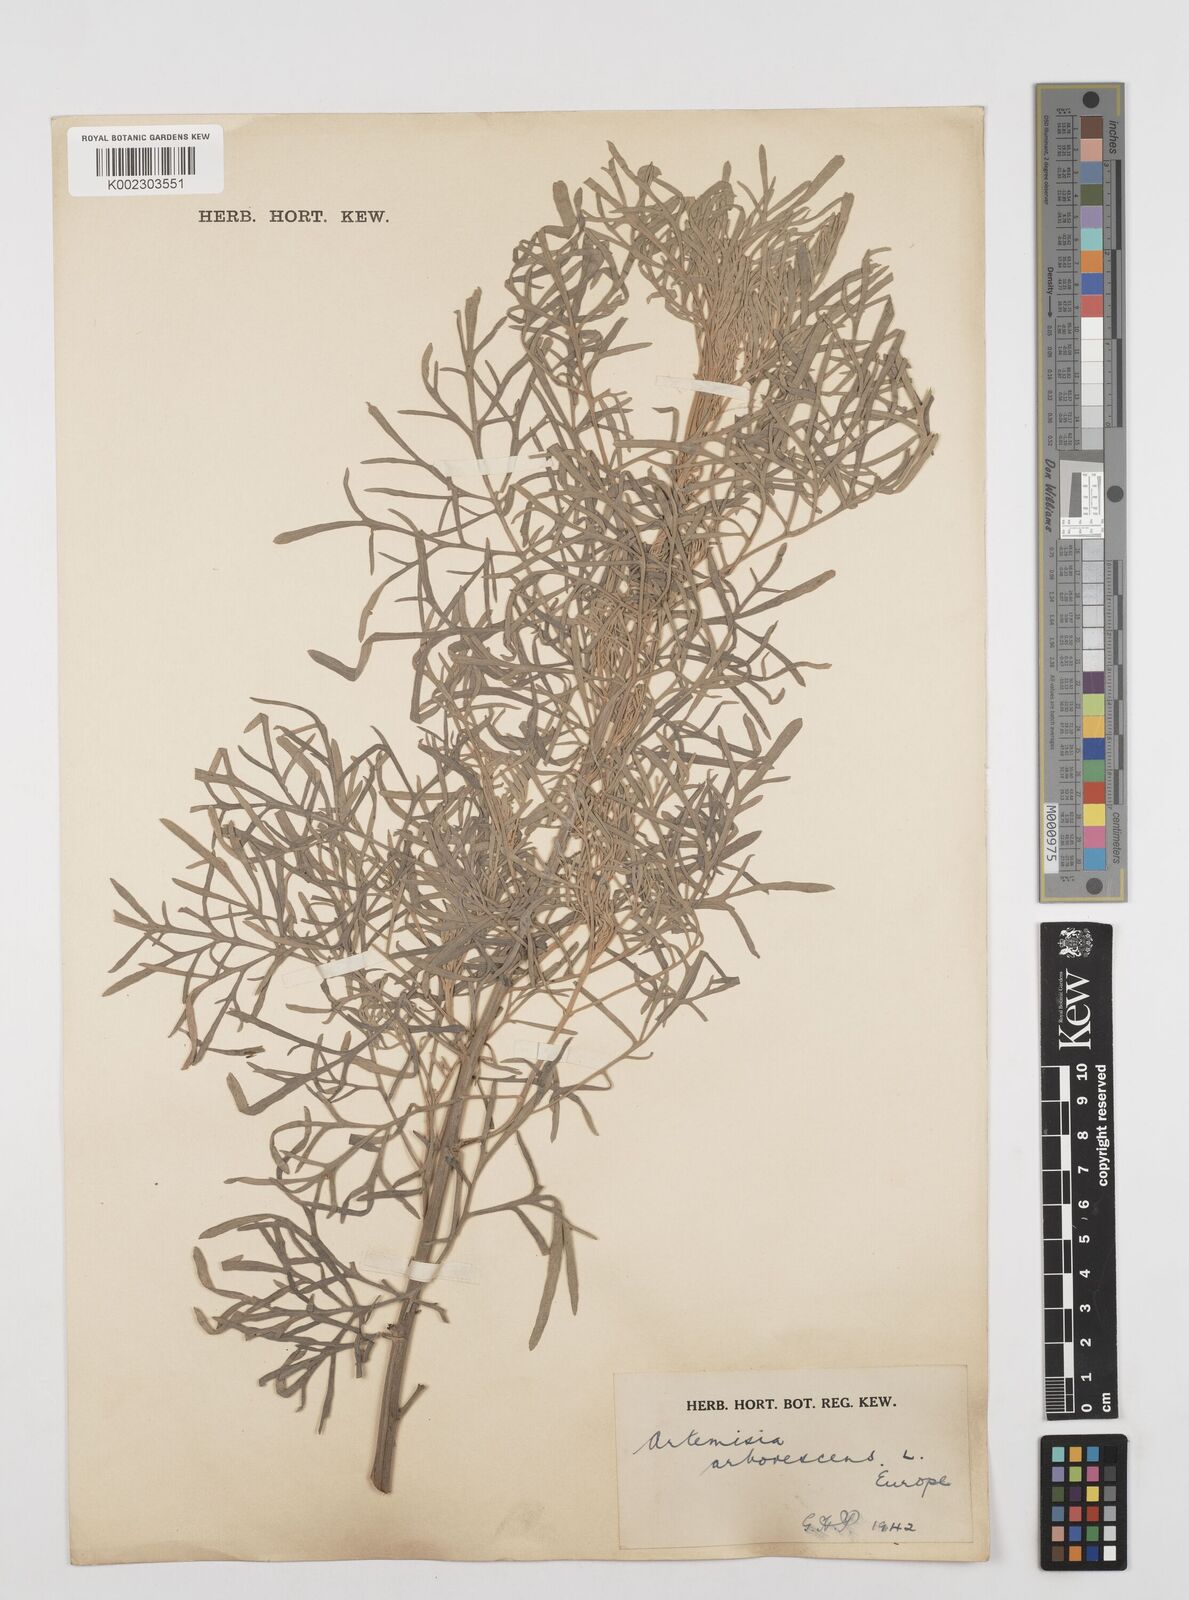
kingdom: Plantae
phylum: Tracheophyta
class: Magnoliopsida
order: Asterales
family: Asteraceae
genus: Artemisia
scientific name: Artemisia arborescens
